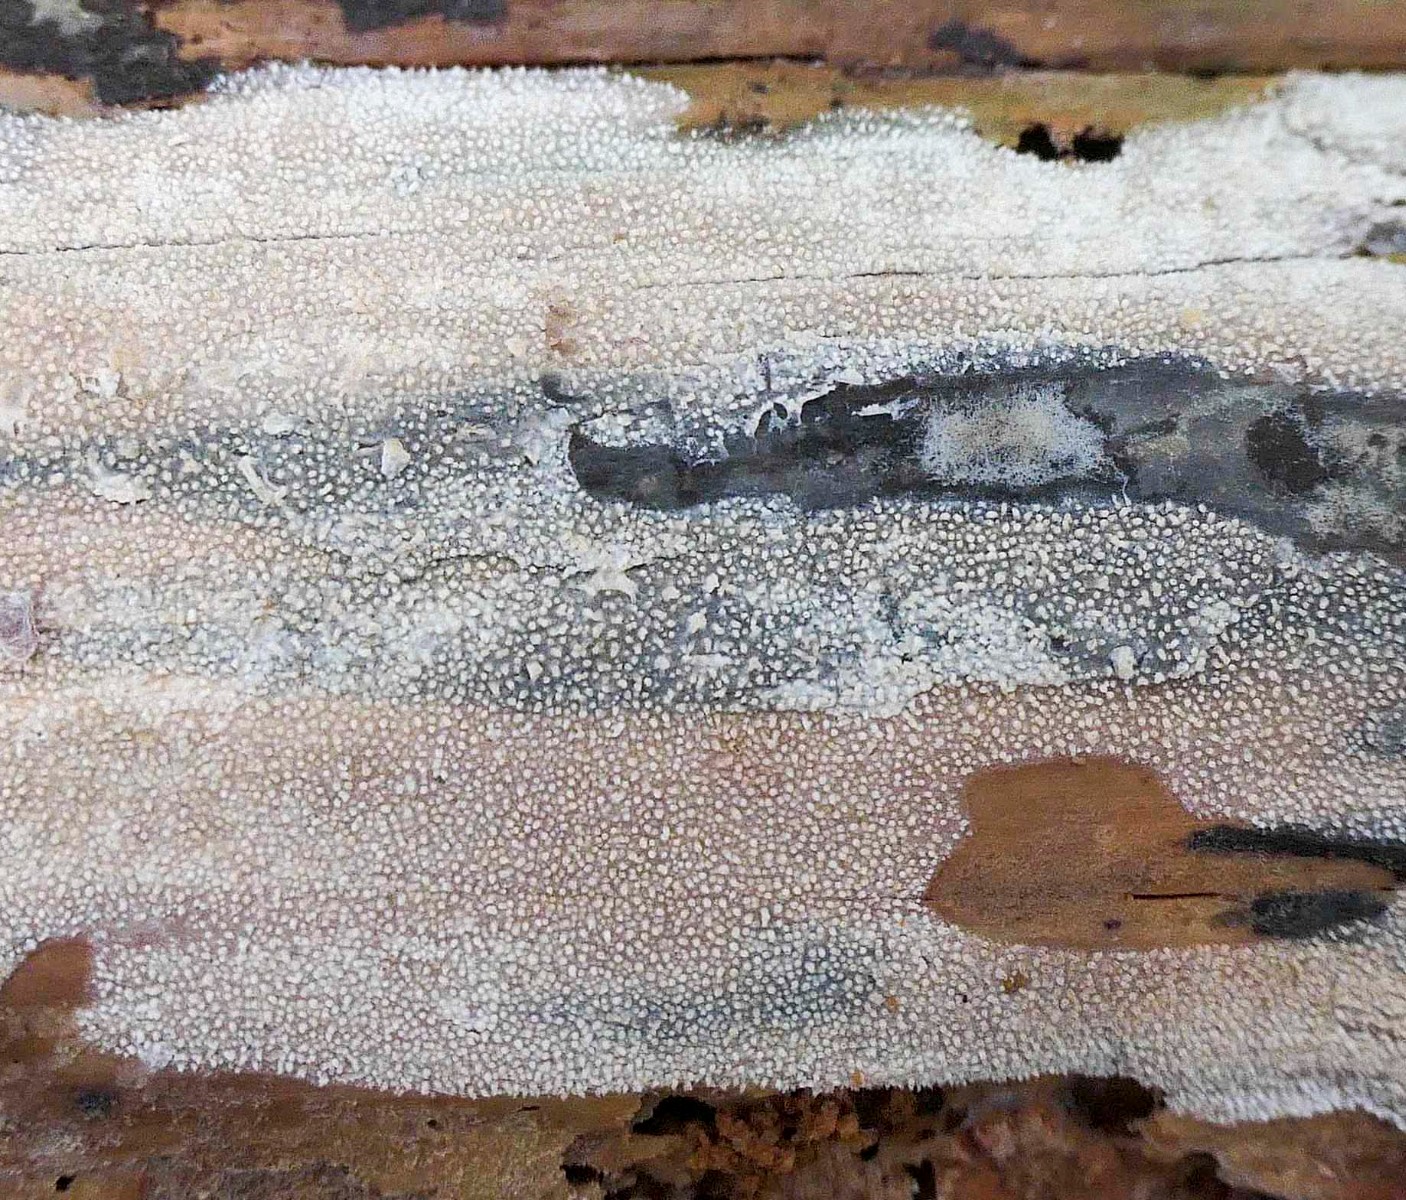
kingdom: Fungi
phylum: Basidiomycota
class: Agaricomycetes
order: Hymenochaetales
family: Rickenellaceae
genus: Resinicium
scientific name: Resinicium bicolor
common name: almindelig vokstand
